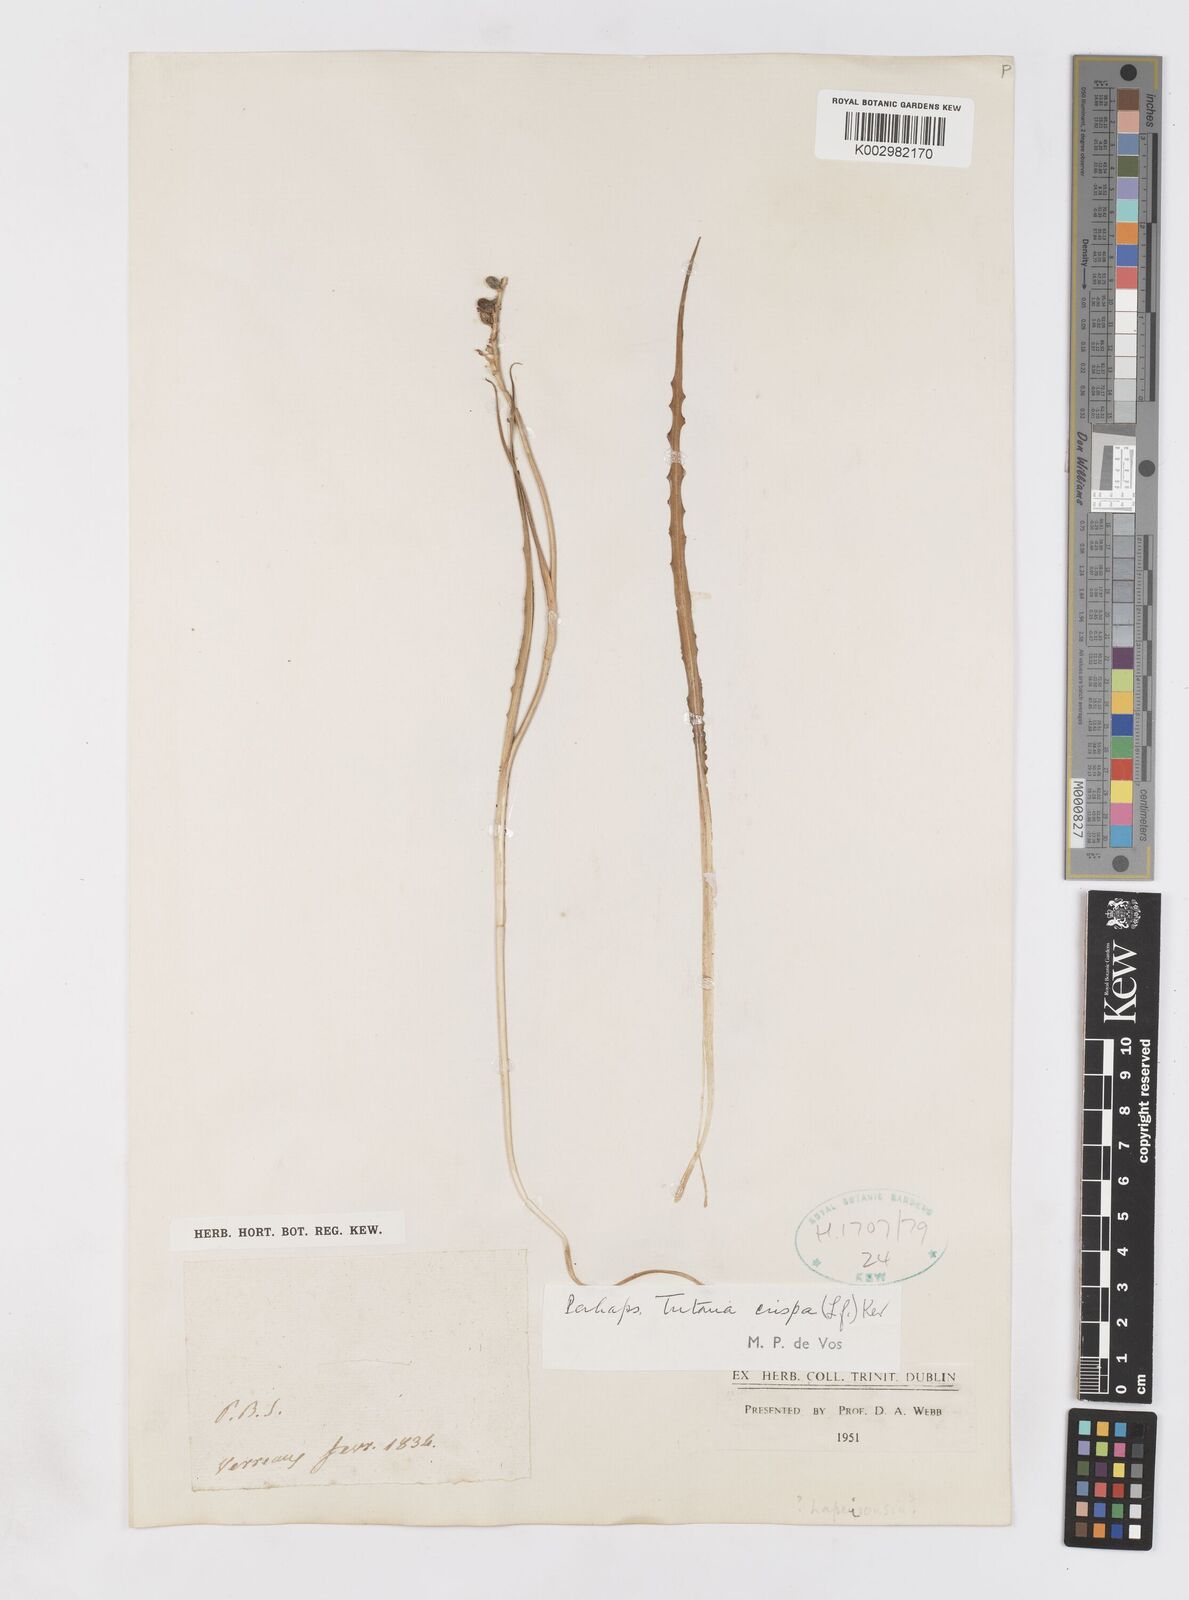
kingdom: Plantae
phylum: Tracheophyta
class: Liliopsida
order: Asparagales
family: Iridaceae
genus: Tritonia
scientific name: Tritonia undulata
